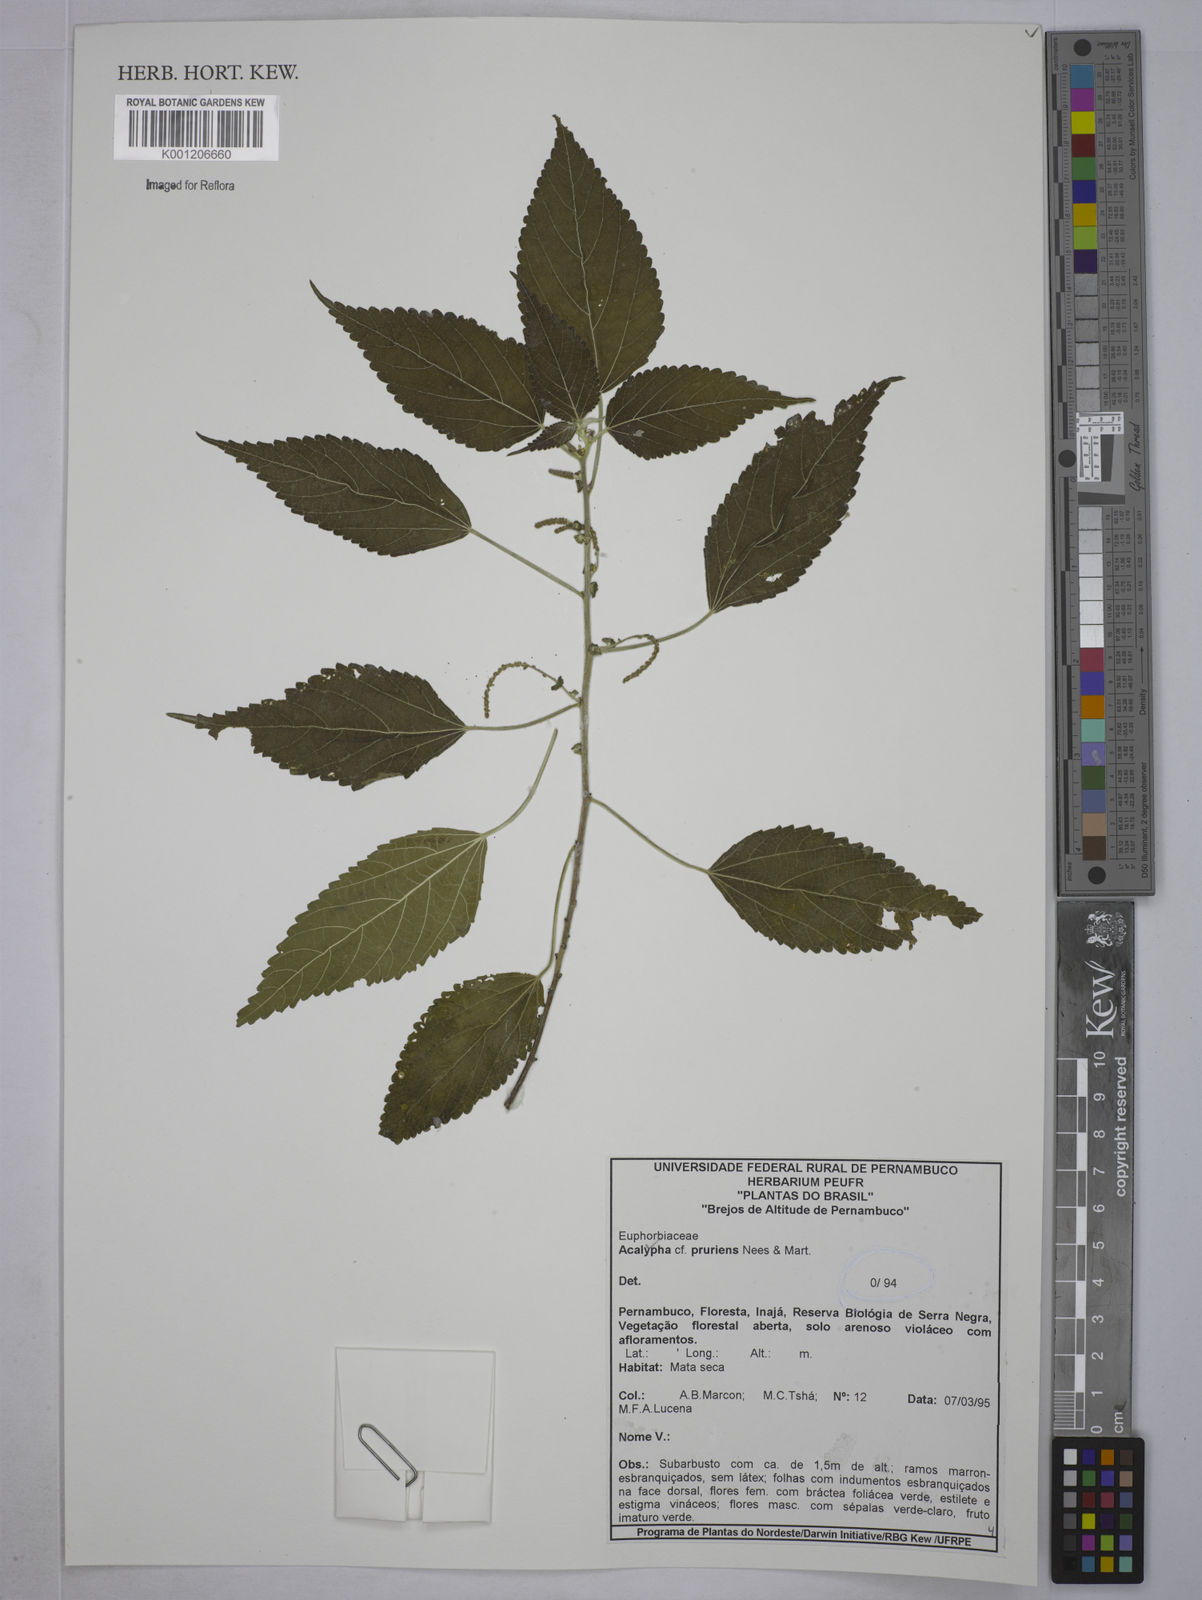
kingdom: Plantae
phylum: Tracheophyta
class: Magnoliopsida
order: Malpighiales
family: Euphorbiaceae
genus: Acalypha
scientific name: Acalypha pruriens
